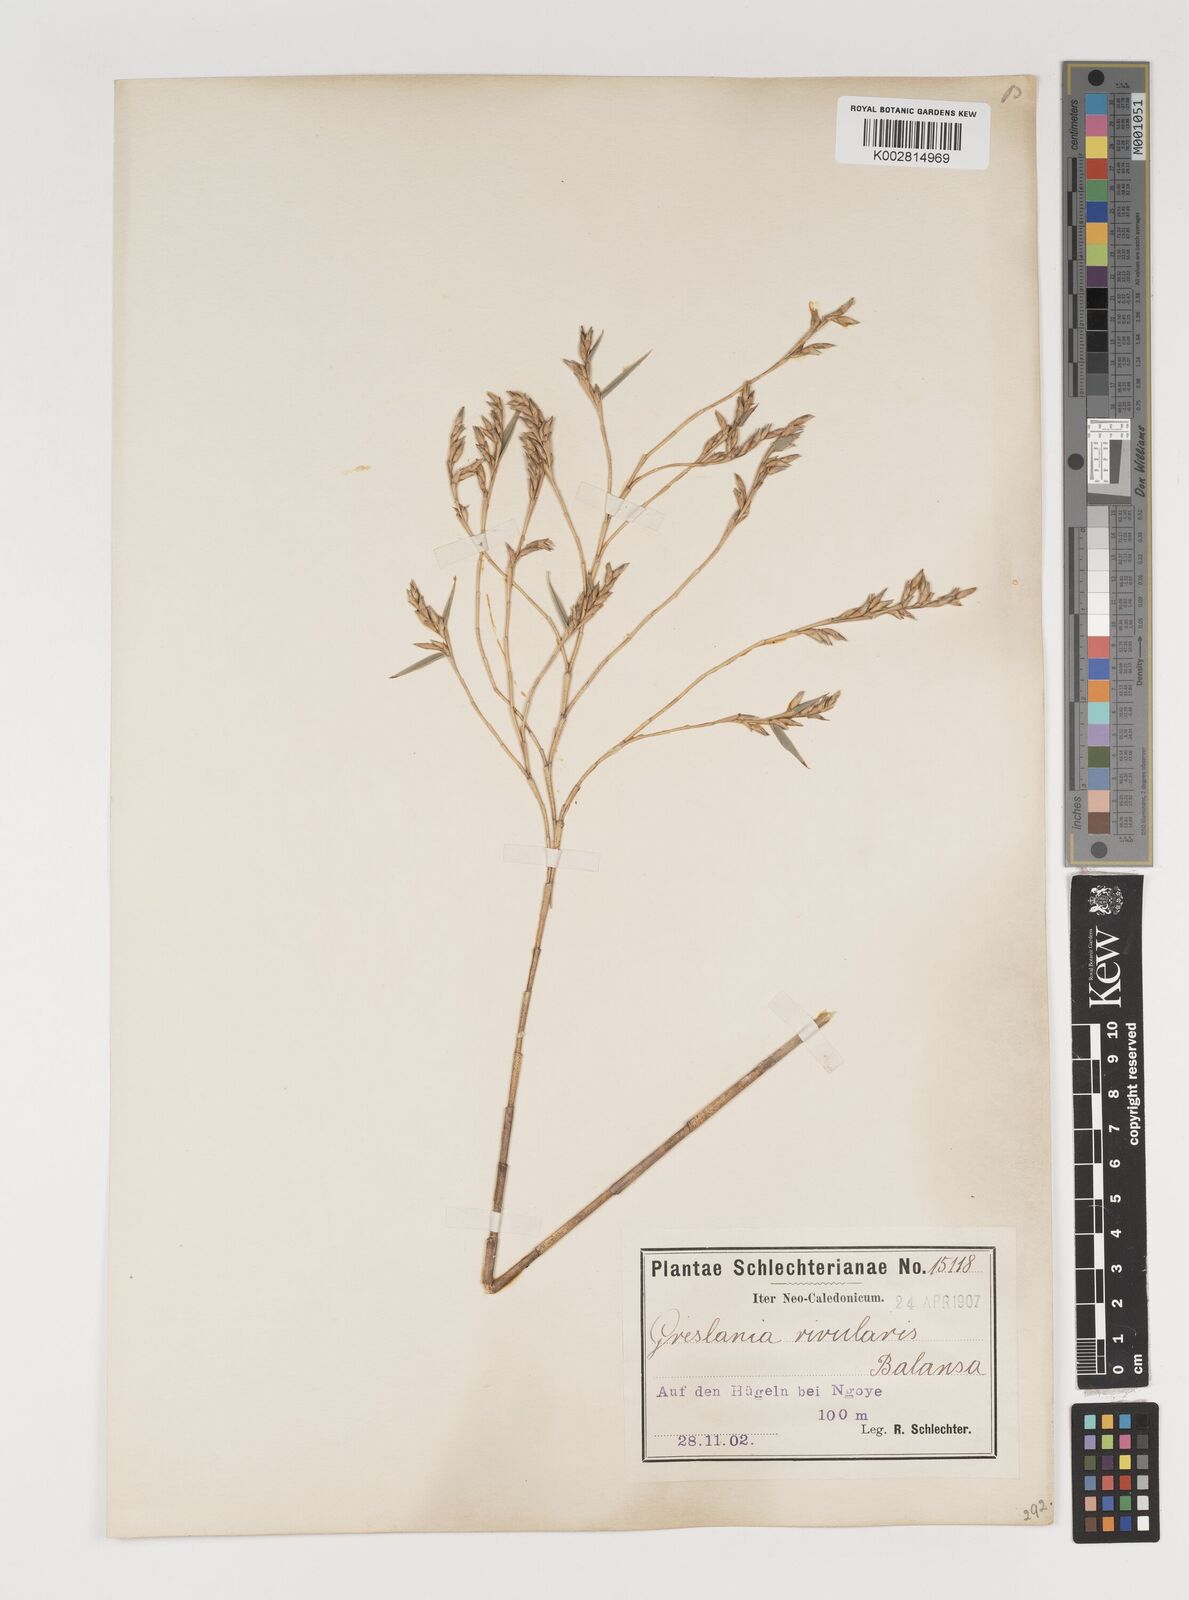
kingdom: Plantae
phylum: Tracheophyta
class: Liliopsida
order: Poales
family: Poaceae
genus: Greslania
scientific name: Greslania rivularis
